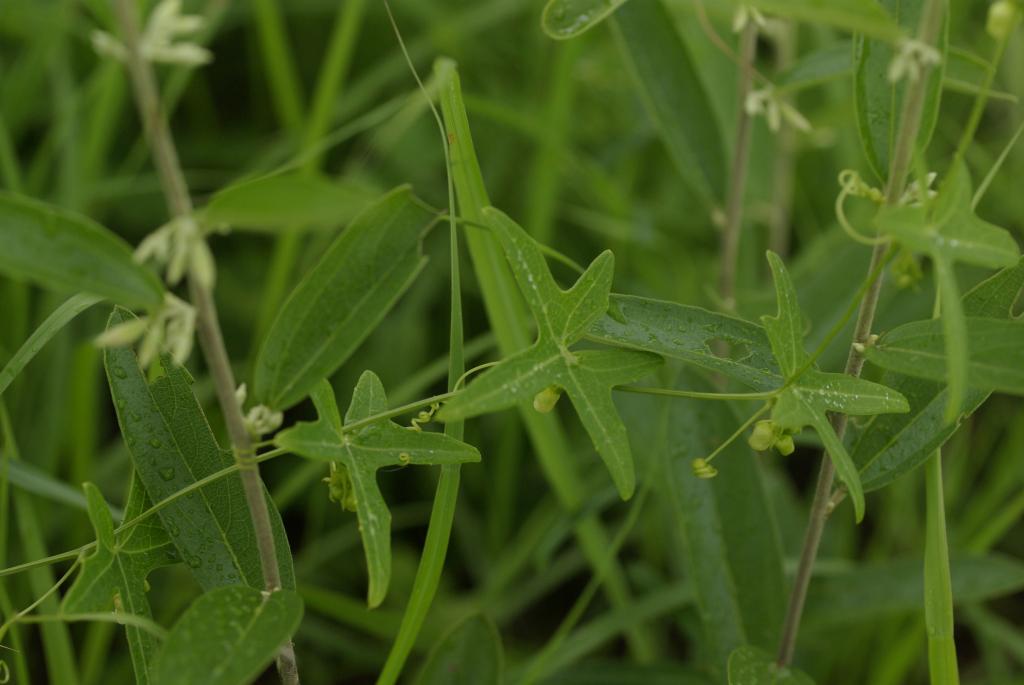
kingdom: Plantae
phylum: Tracheophyta
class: Magnoliopsida
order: Cucurbitales
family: Cucurbitaceae
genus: Solena
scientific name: Solena amplexicaulis
